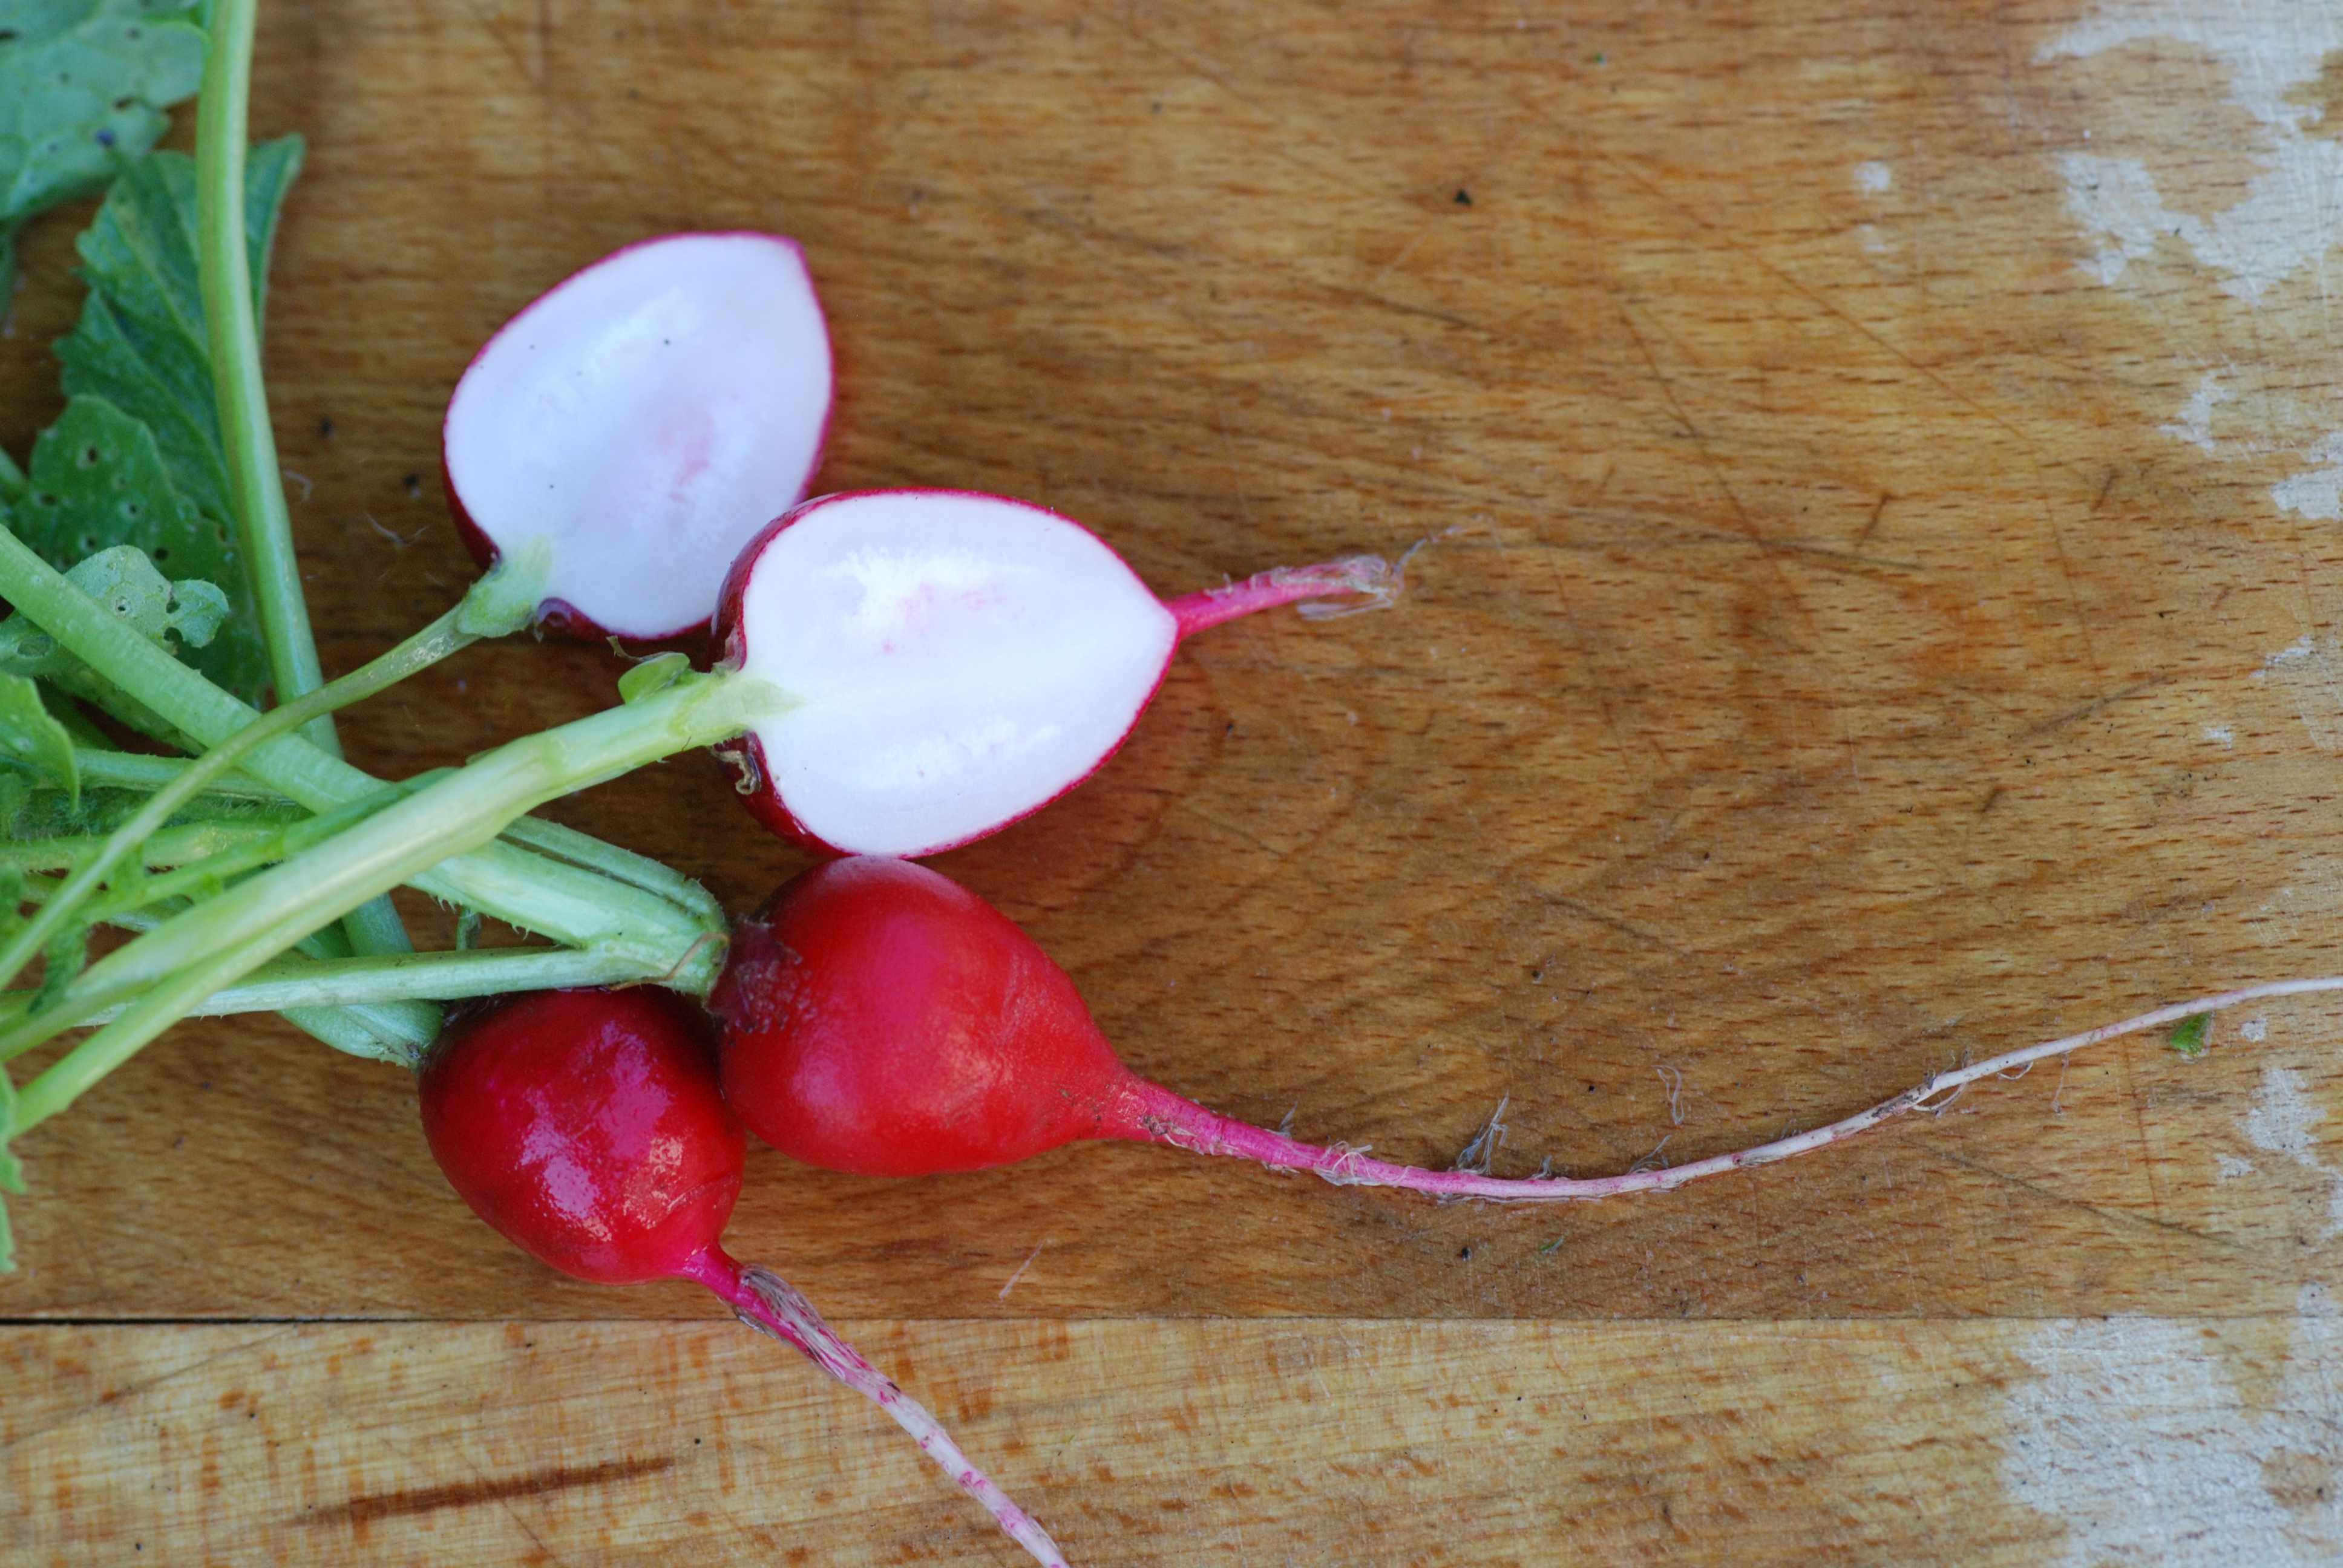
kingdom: Plantae
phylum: Tracheophyta
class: Magnoliopsida
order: Brassicales
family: Brassicaceae
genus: Raphanus
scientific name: Raphanus sativus
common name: Cultivated radish
